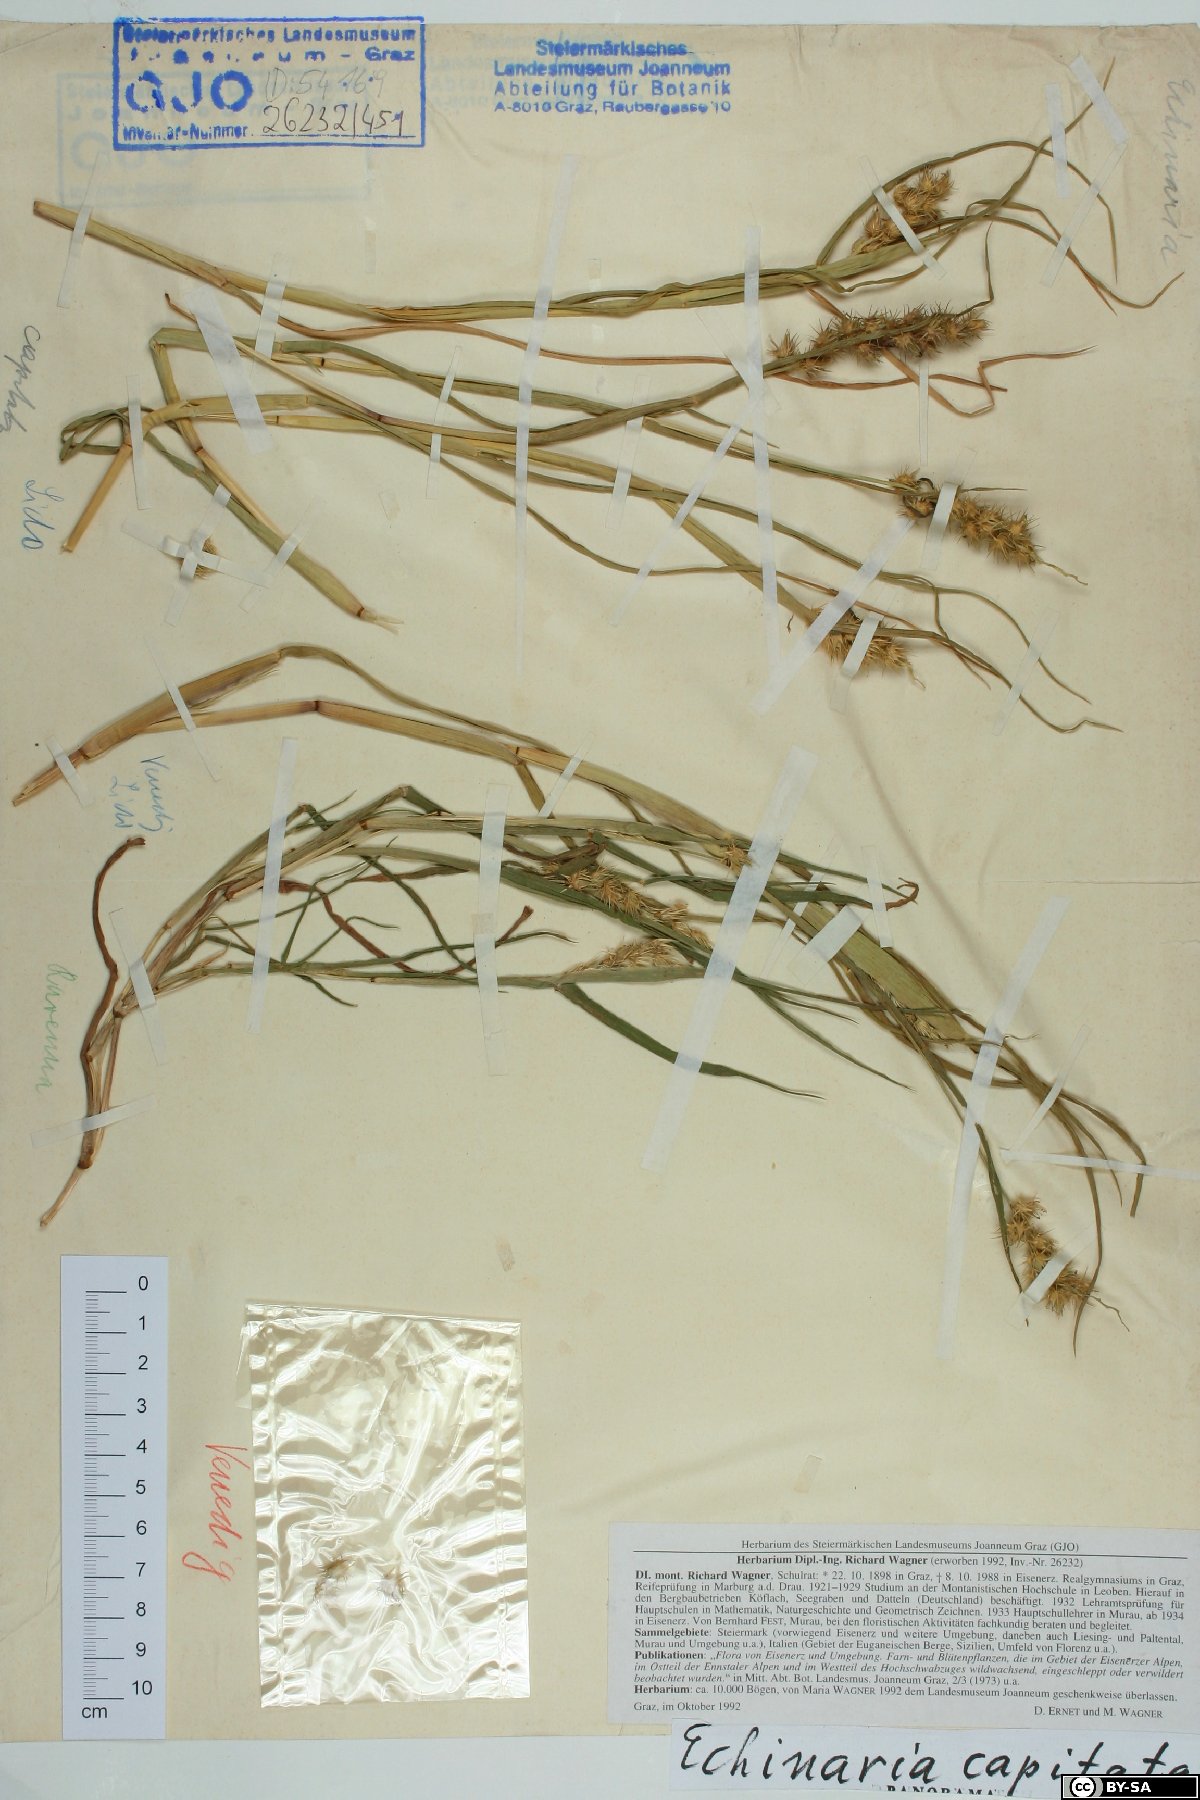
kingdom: Plantae
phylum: Tracheophyta
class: Liliopsida
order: Poales
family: Poaceae
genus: Echinaria
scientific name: Echinaria capitata
